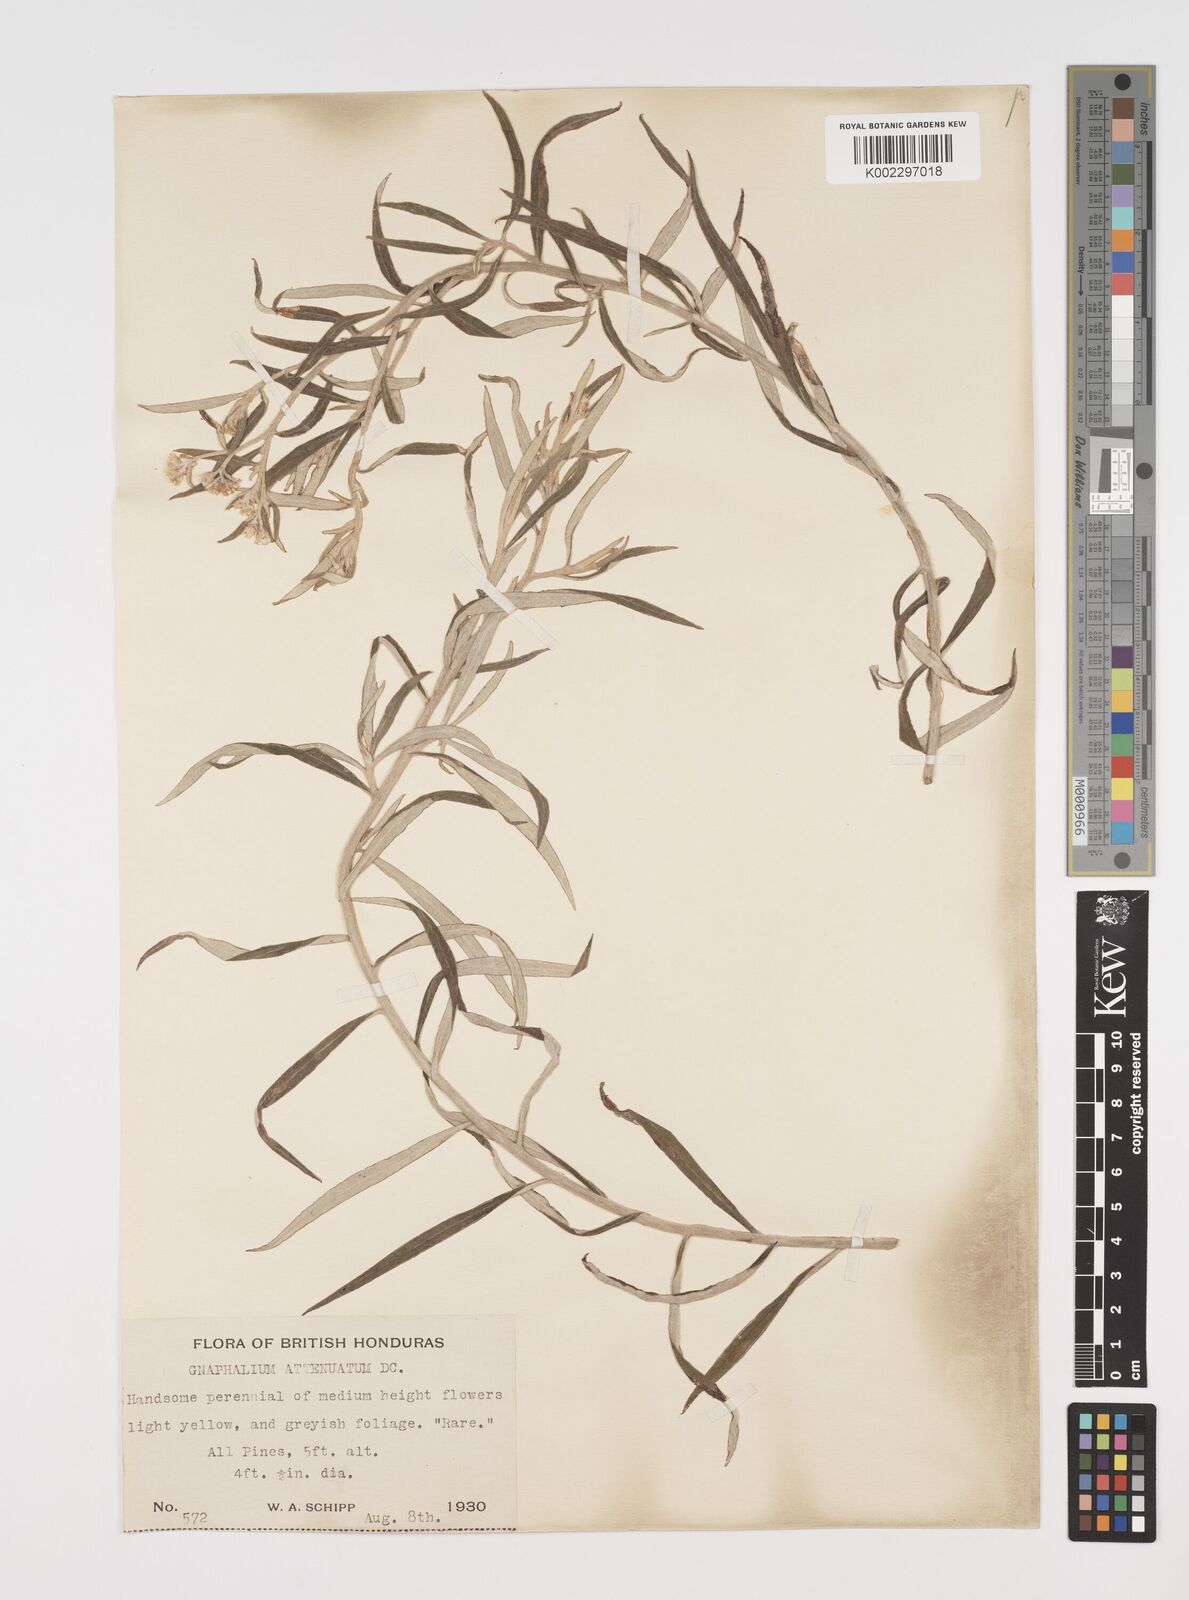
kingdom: Plantae
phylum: Tracheophyta
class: Magnoliopsida
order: Asterales
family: Asteraceae
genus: Pseudognaphalium
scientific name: Pseudognaphalium attenuatum
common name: Tapered cudweed
